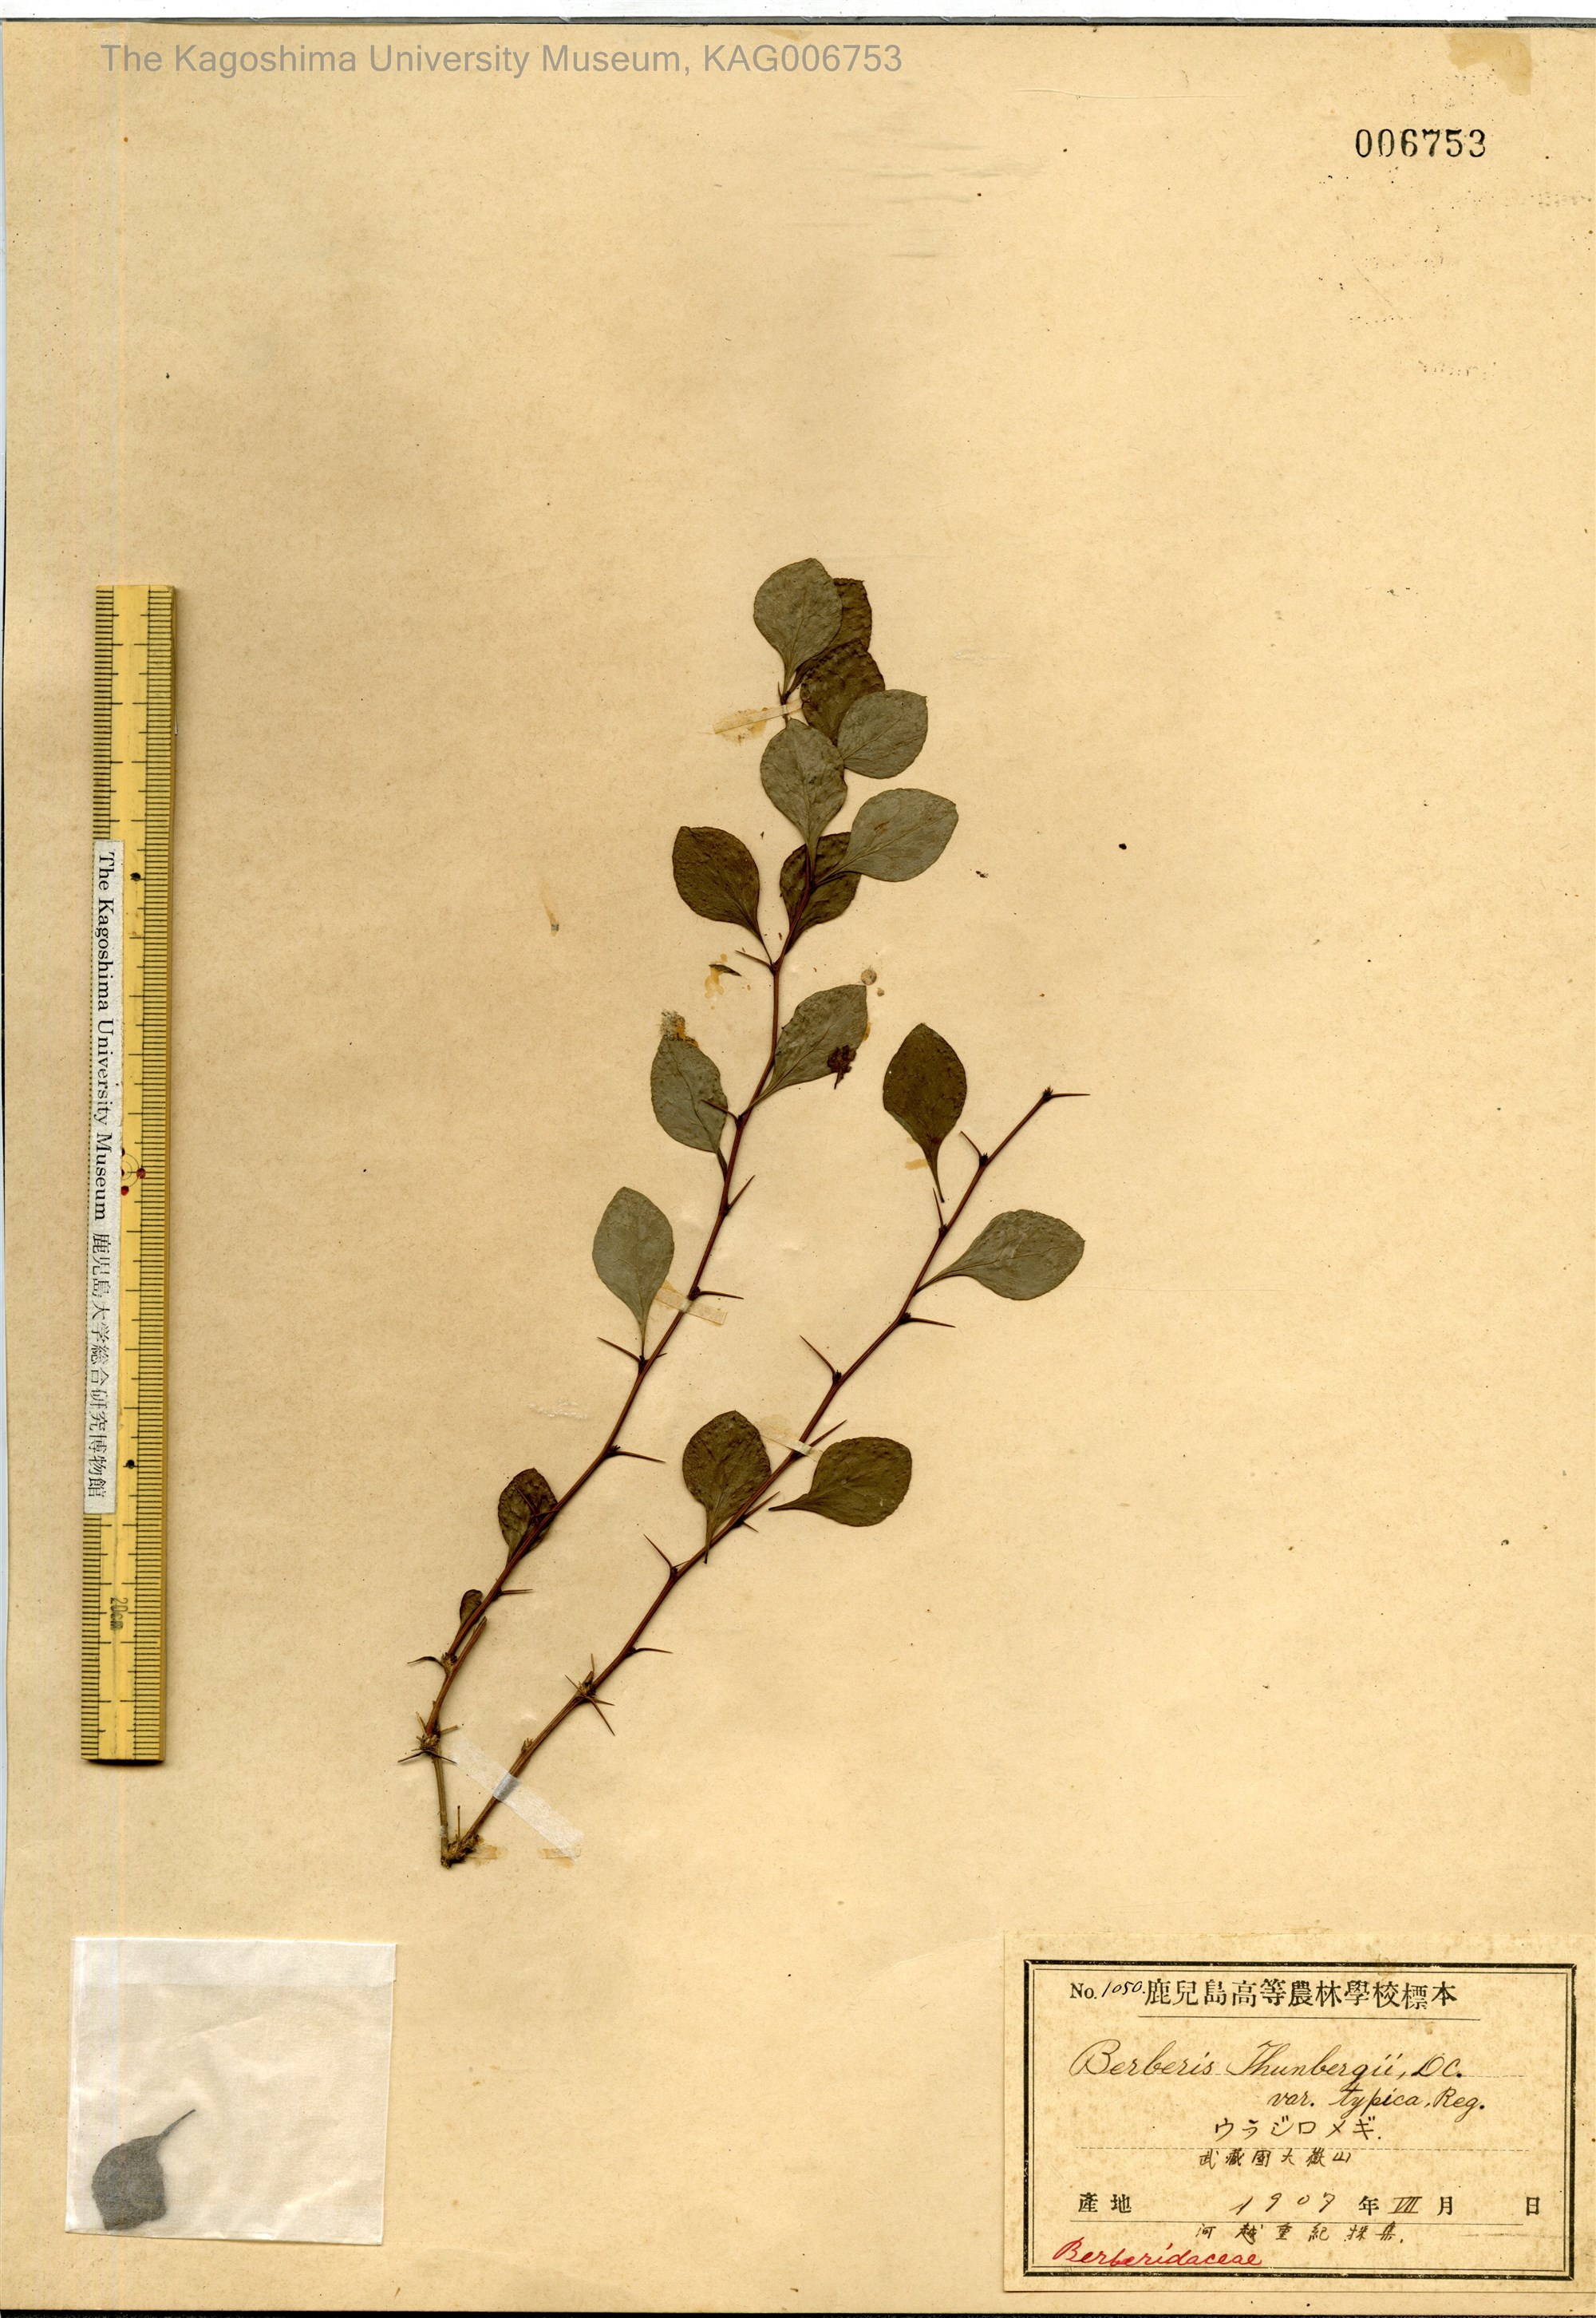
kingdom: Plantae
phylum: Tracheophyta
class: Magnoliopsida
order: Ranunculales
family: Berberidaceae
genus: Berberis
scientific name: Berberis thunbergii
